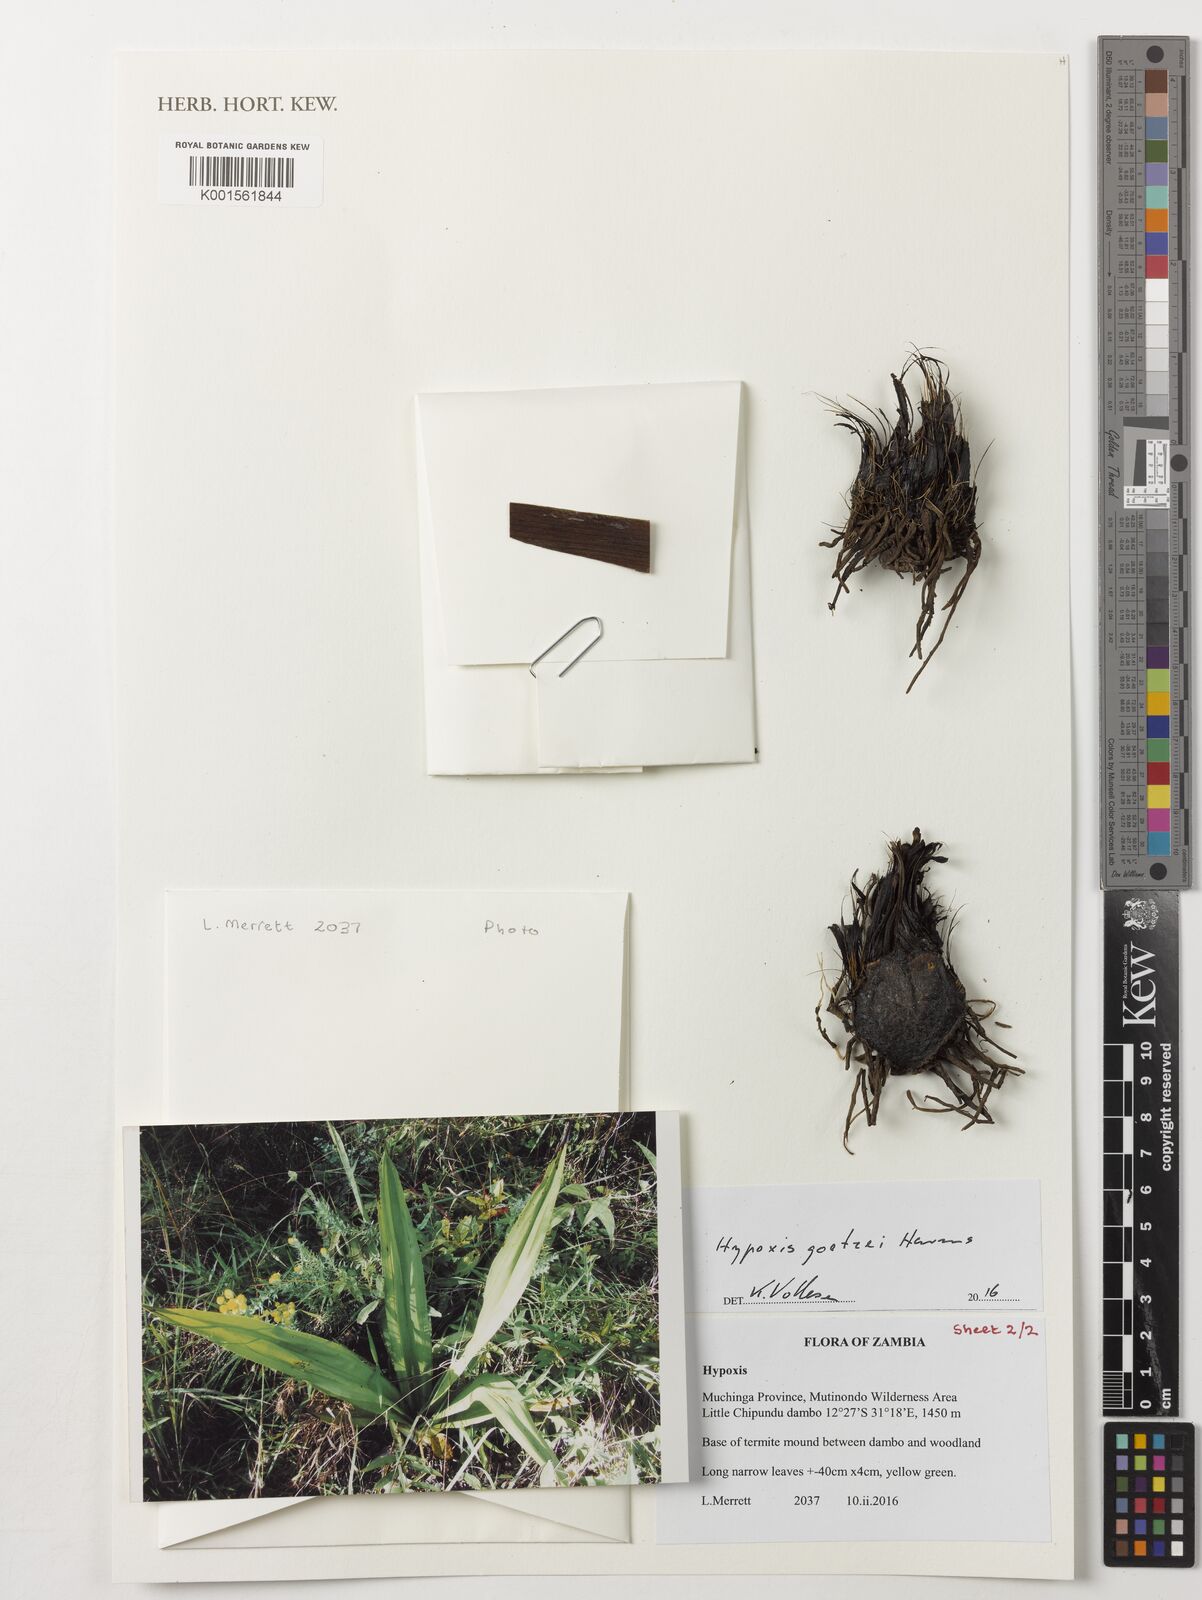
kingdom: Plantae
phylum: Tracheophyta
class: Liliopsida
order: Asparagales
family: Hypoxidaceae
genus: Hypoxis
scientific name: Hypoxis goetzei
